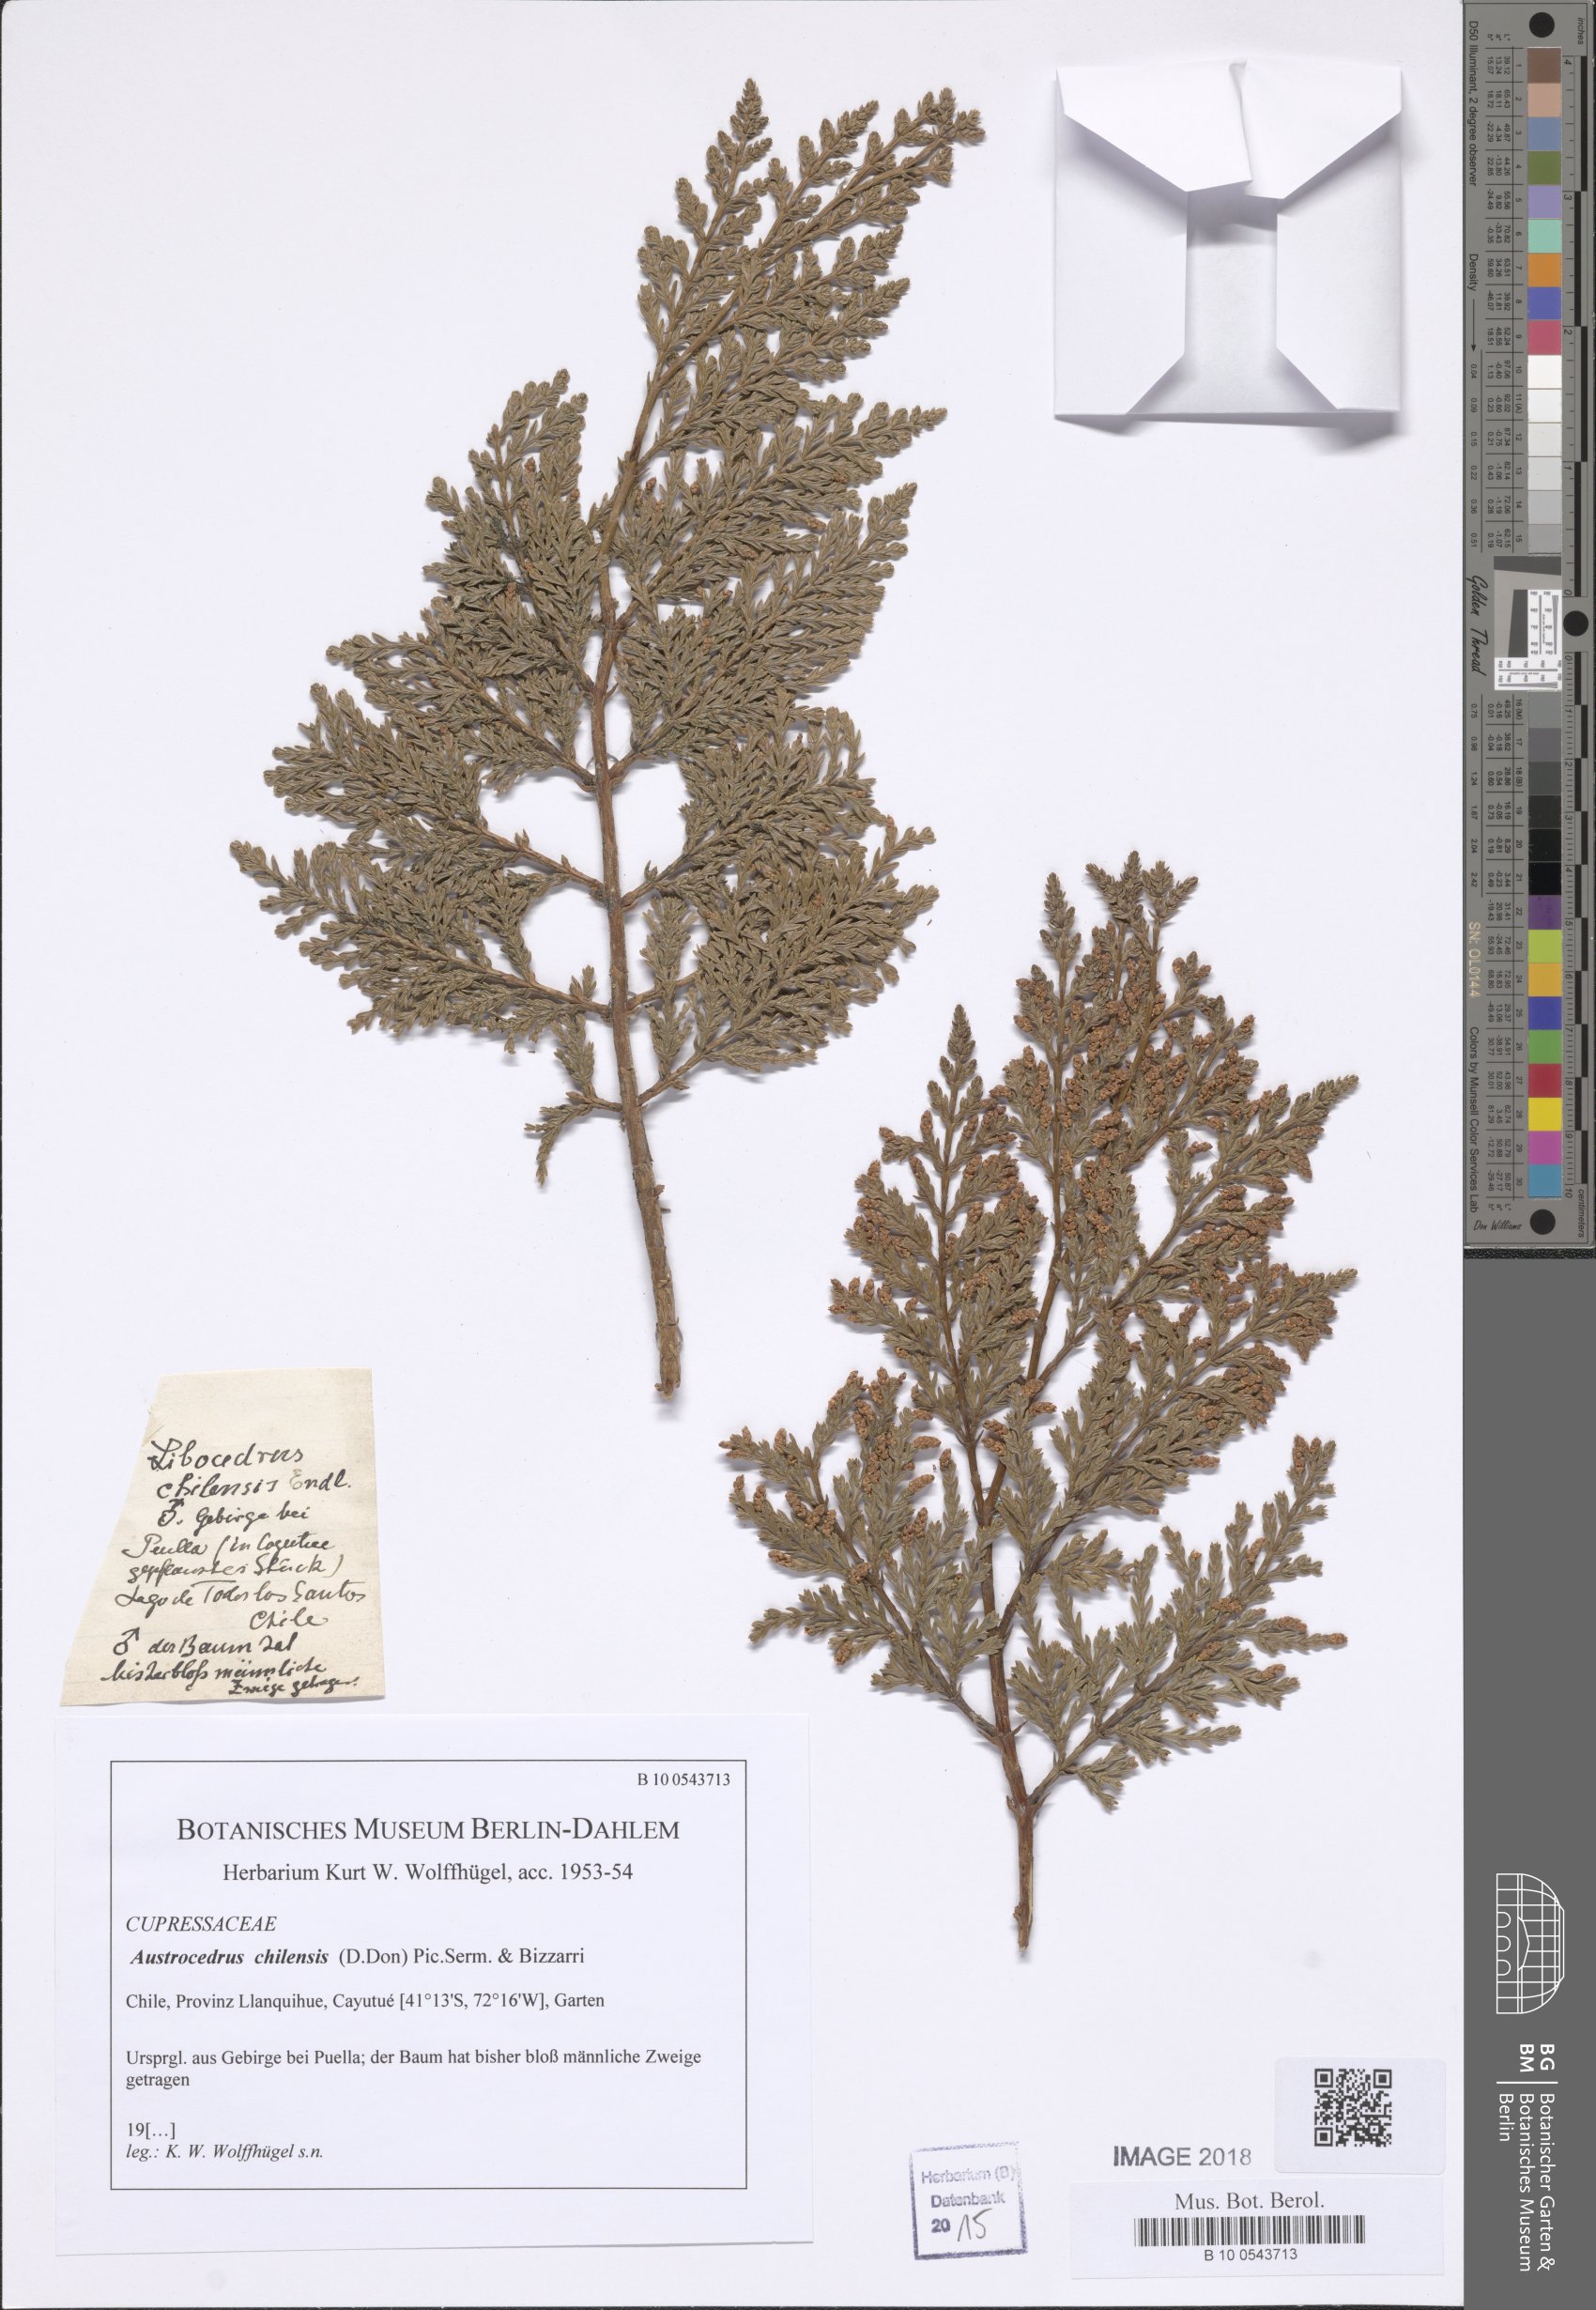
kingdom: Plantae
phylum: Tracheophyta
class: Pinopsida
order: Pinales
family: Cupressaceae
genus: Austrocedrus
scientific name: Austrocedrus chilensis
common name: Chilean incense-cedar
